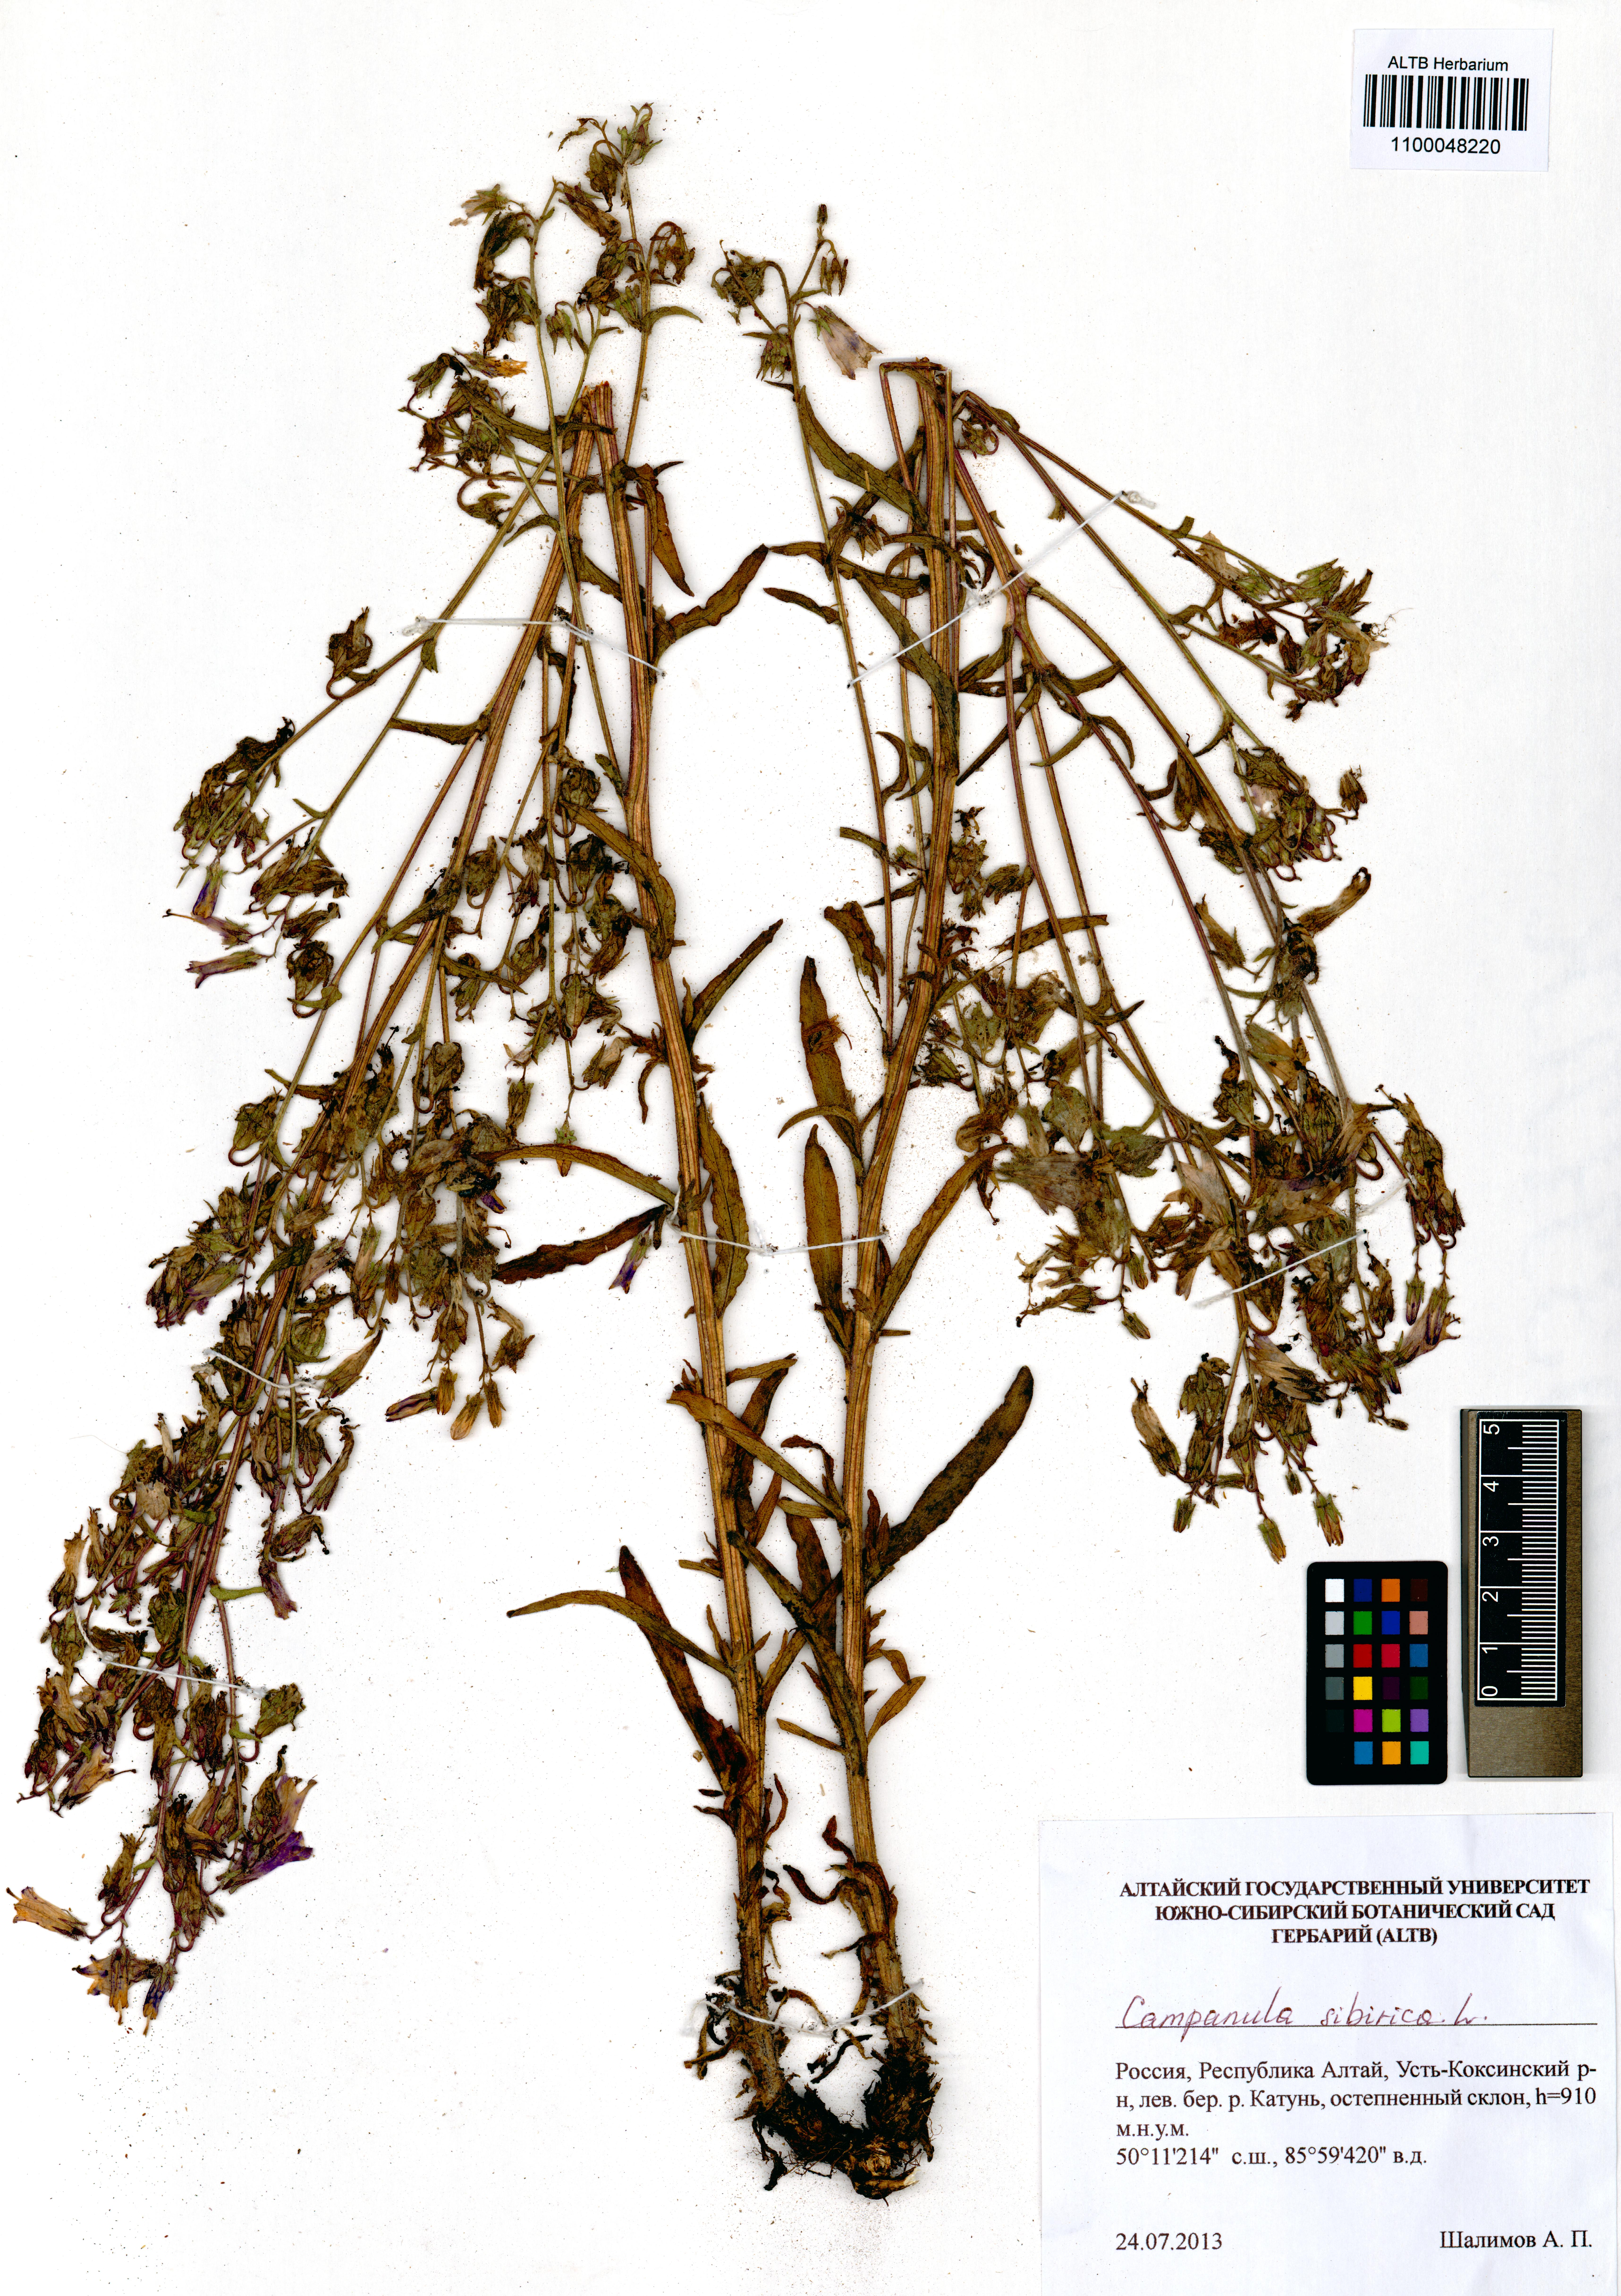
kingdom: Plantae
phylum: Tracheophyta
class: Magnoliopsida
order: Asterales
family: Campanulaceae
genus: Campanula
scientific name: Campanula sibirica
